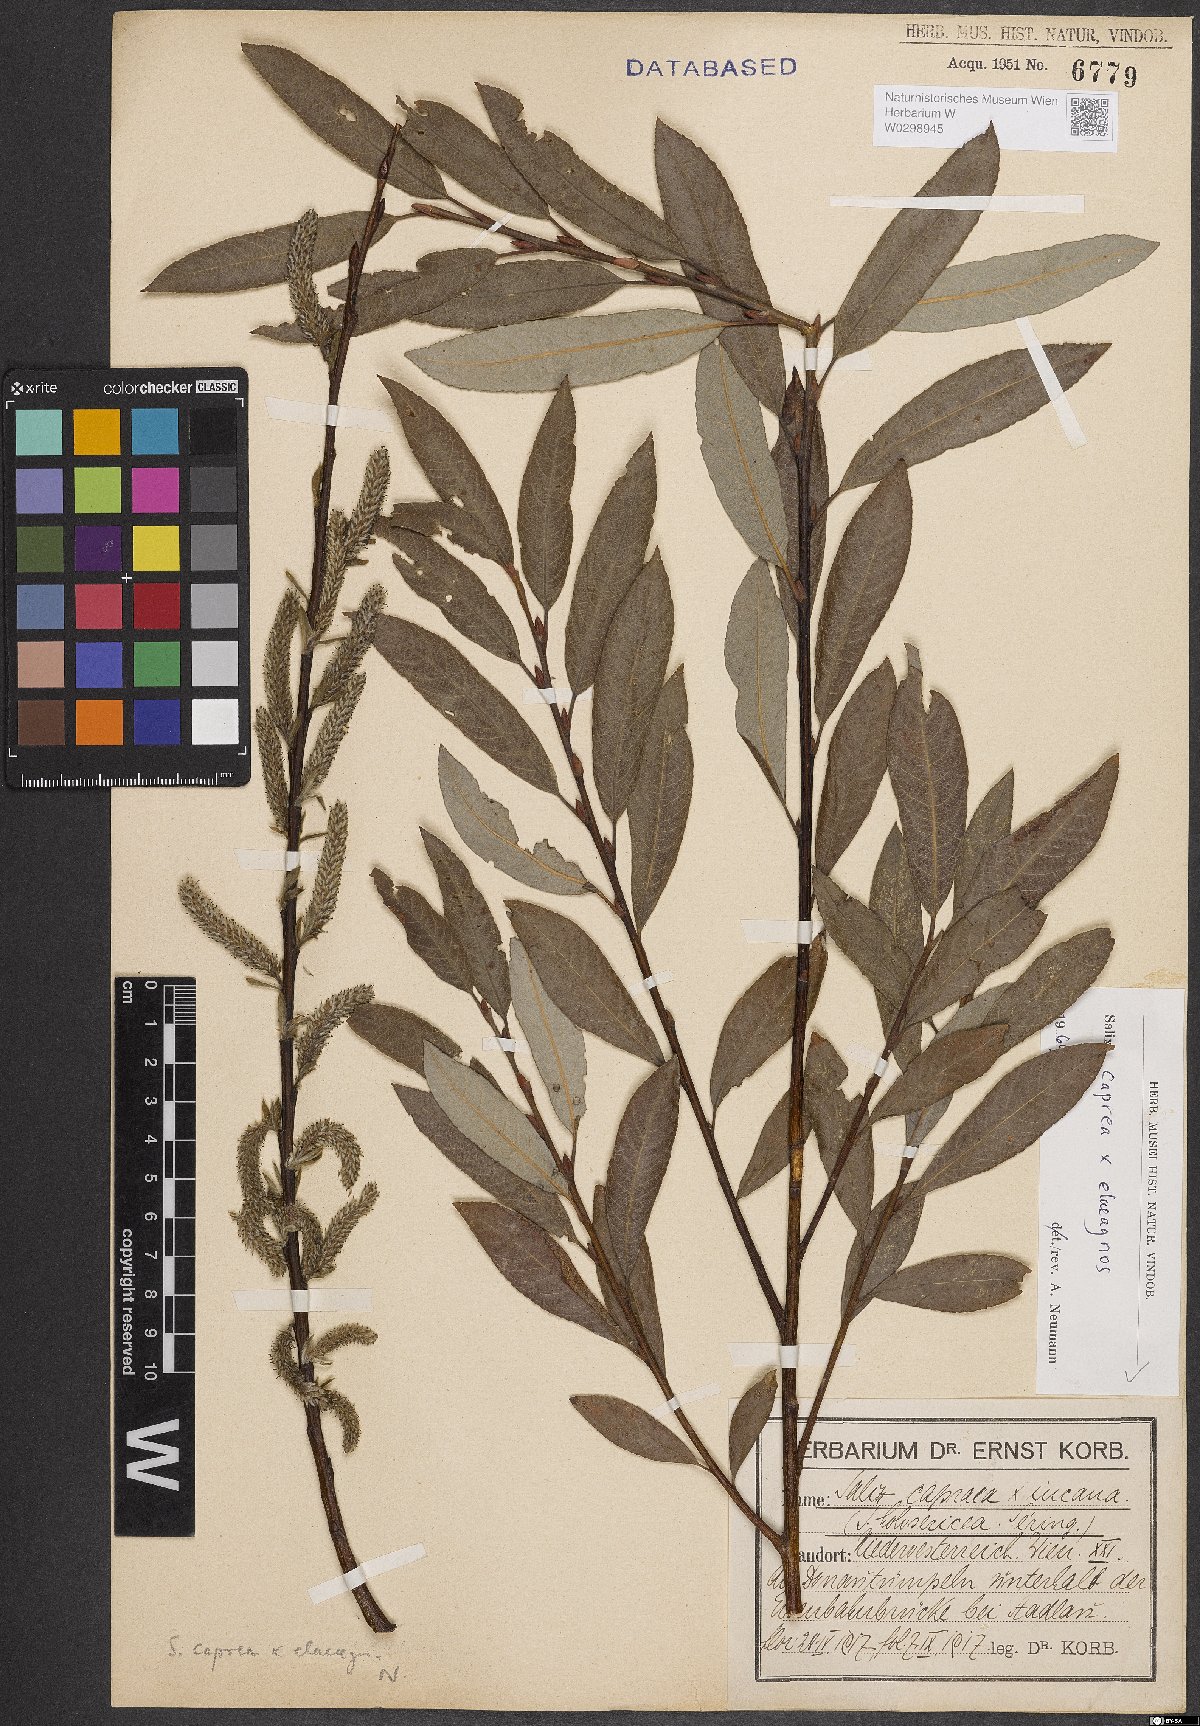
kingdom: Plantae
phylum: Tracheophyta
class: Magnoliopsida
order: Malpighiales
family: Salicaceae
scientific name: Salicaceae
